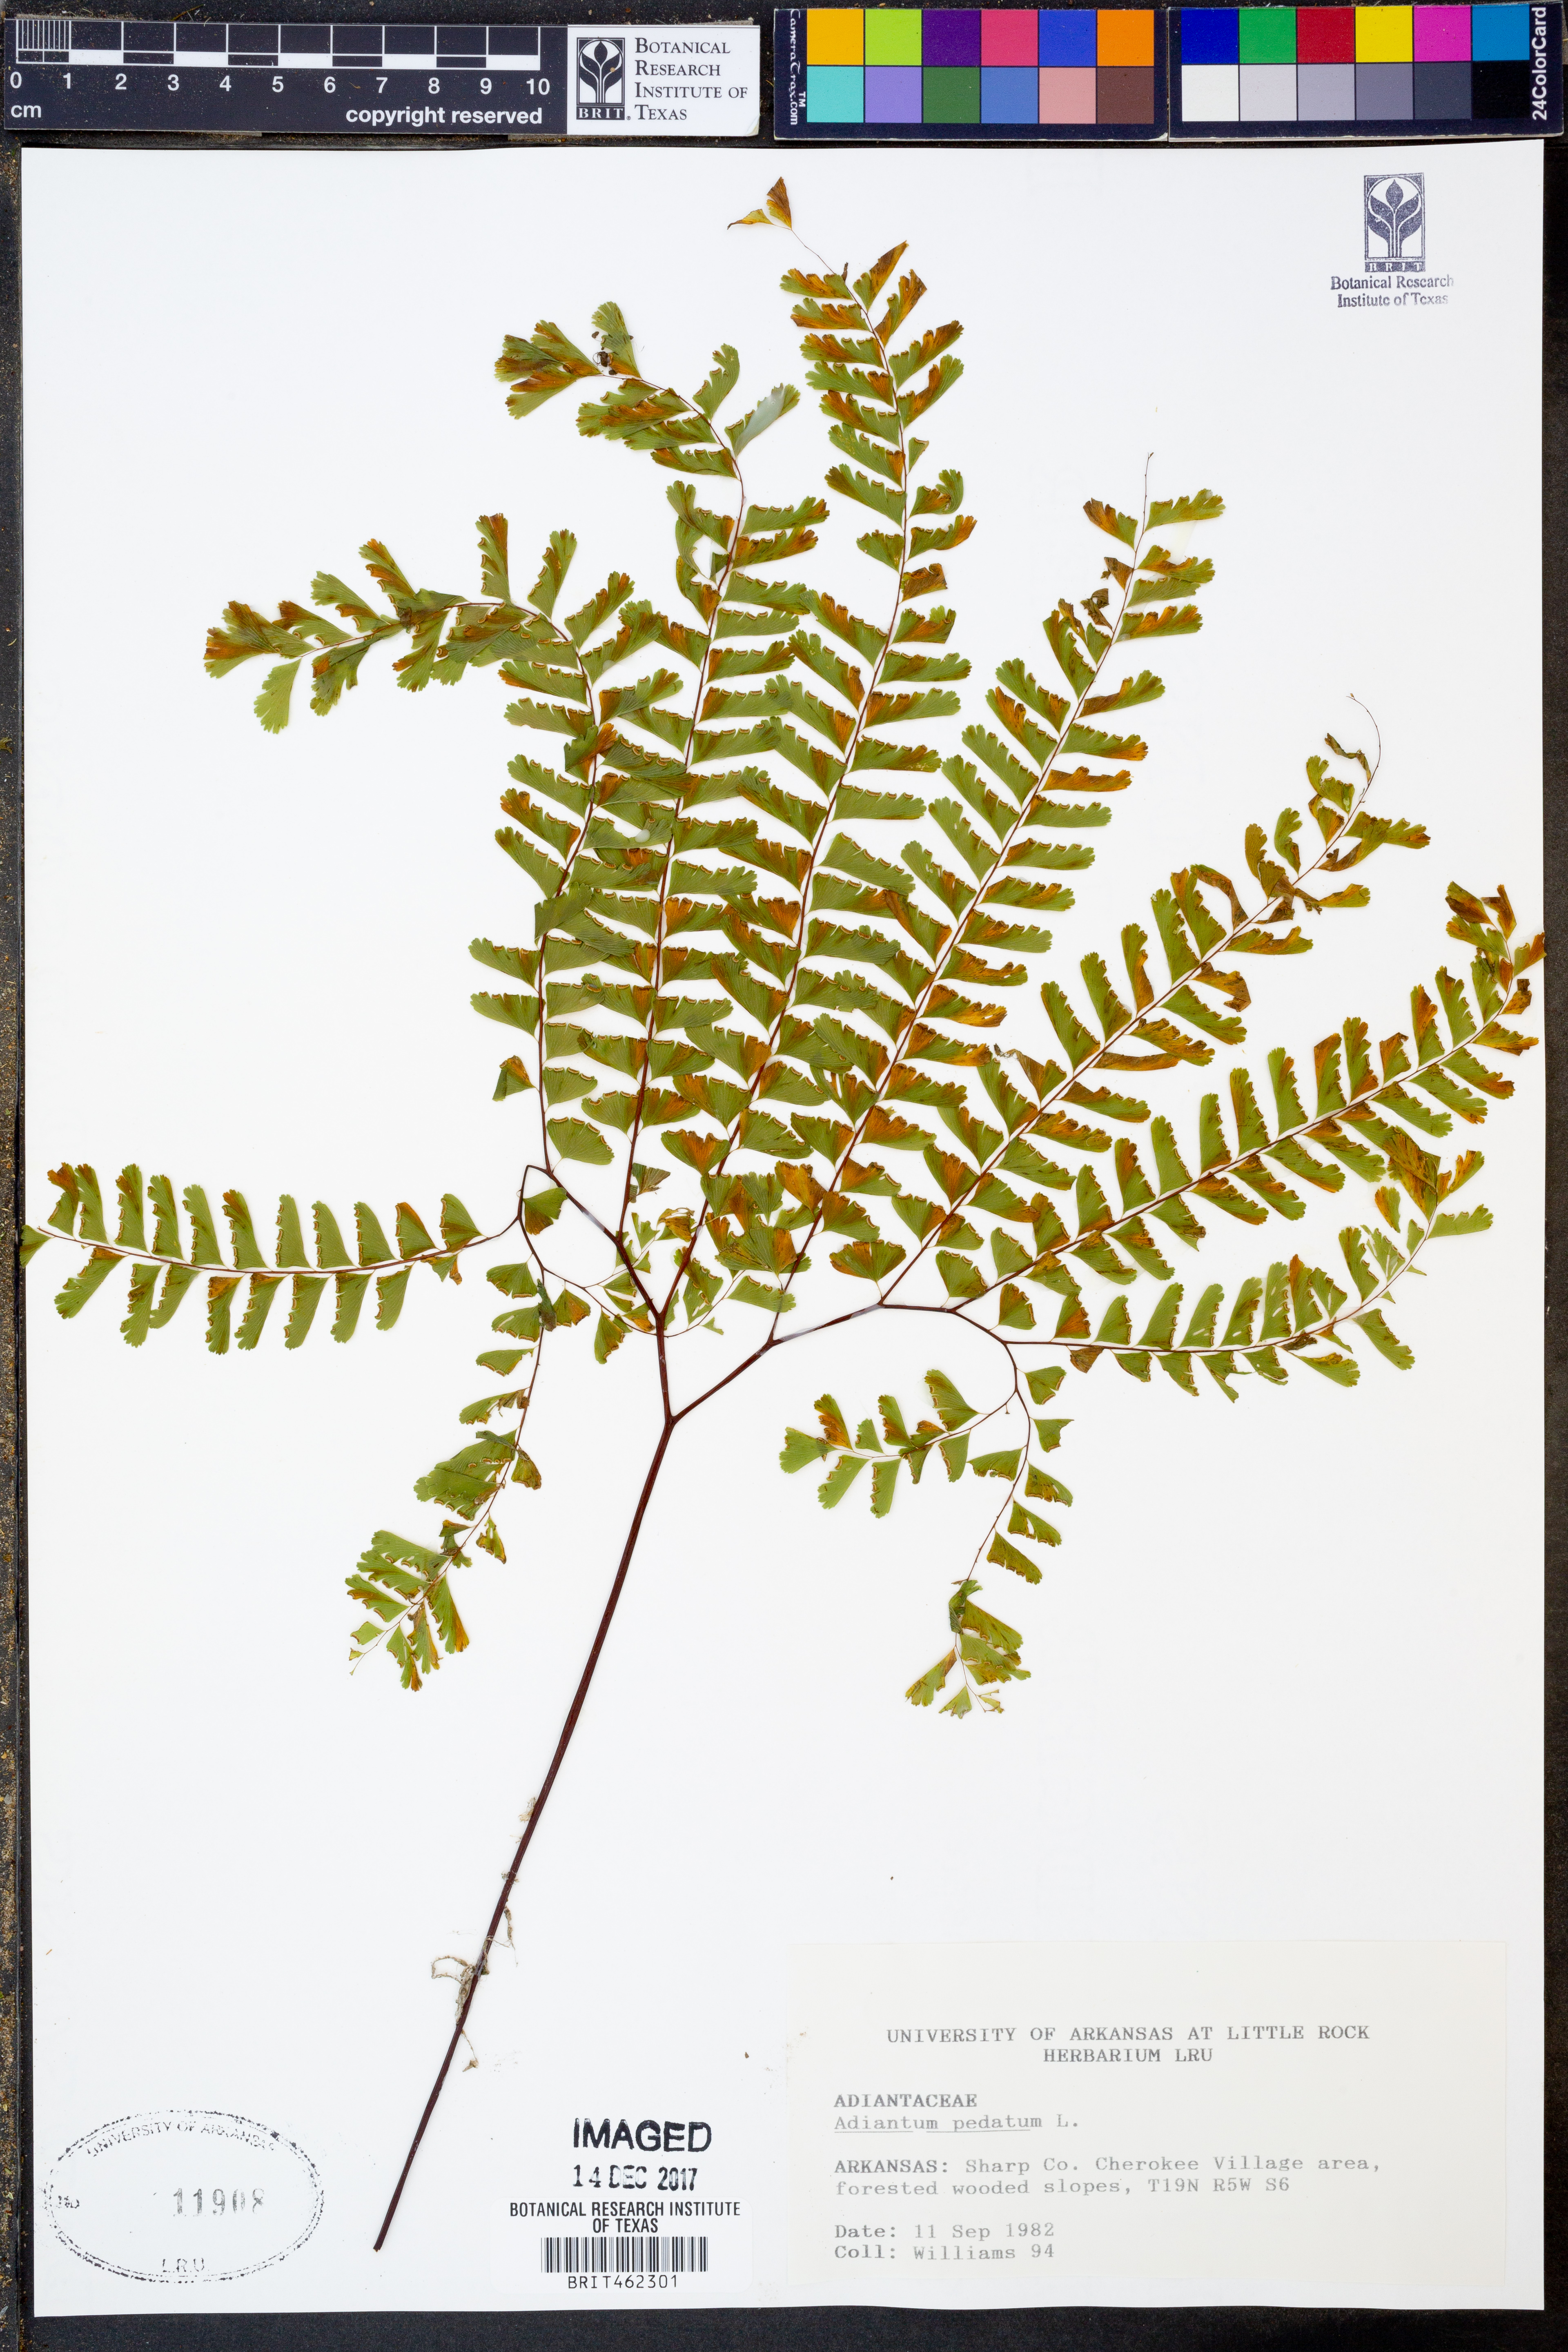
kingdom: Plantae
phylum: Tracheophyta
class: Polypodiopsida
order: Polypodiales
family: Pteridaceae
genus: Adiantum
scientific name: Adiantum pedatum
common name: Five-finger fern
